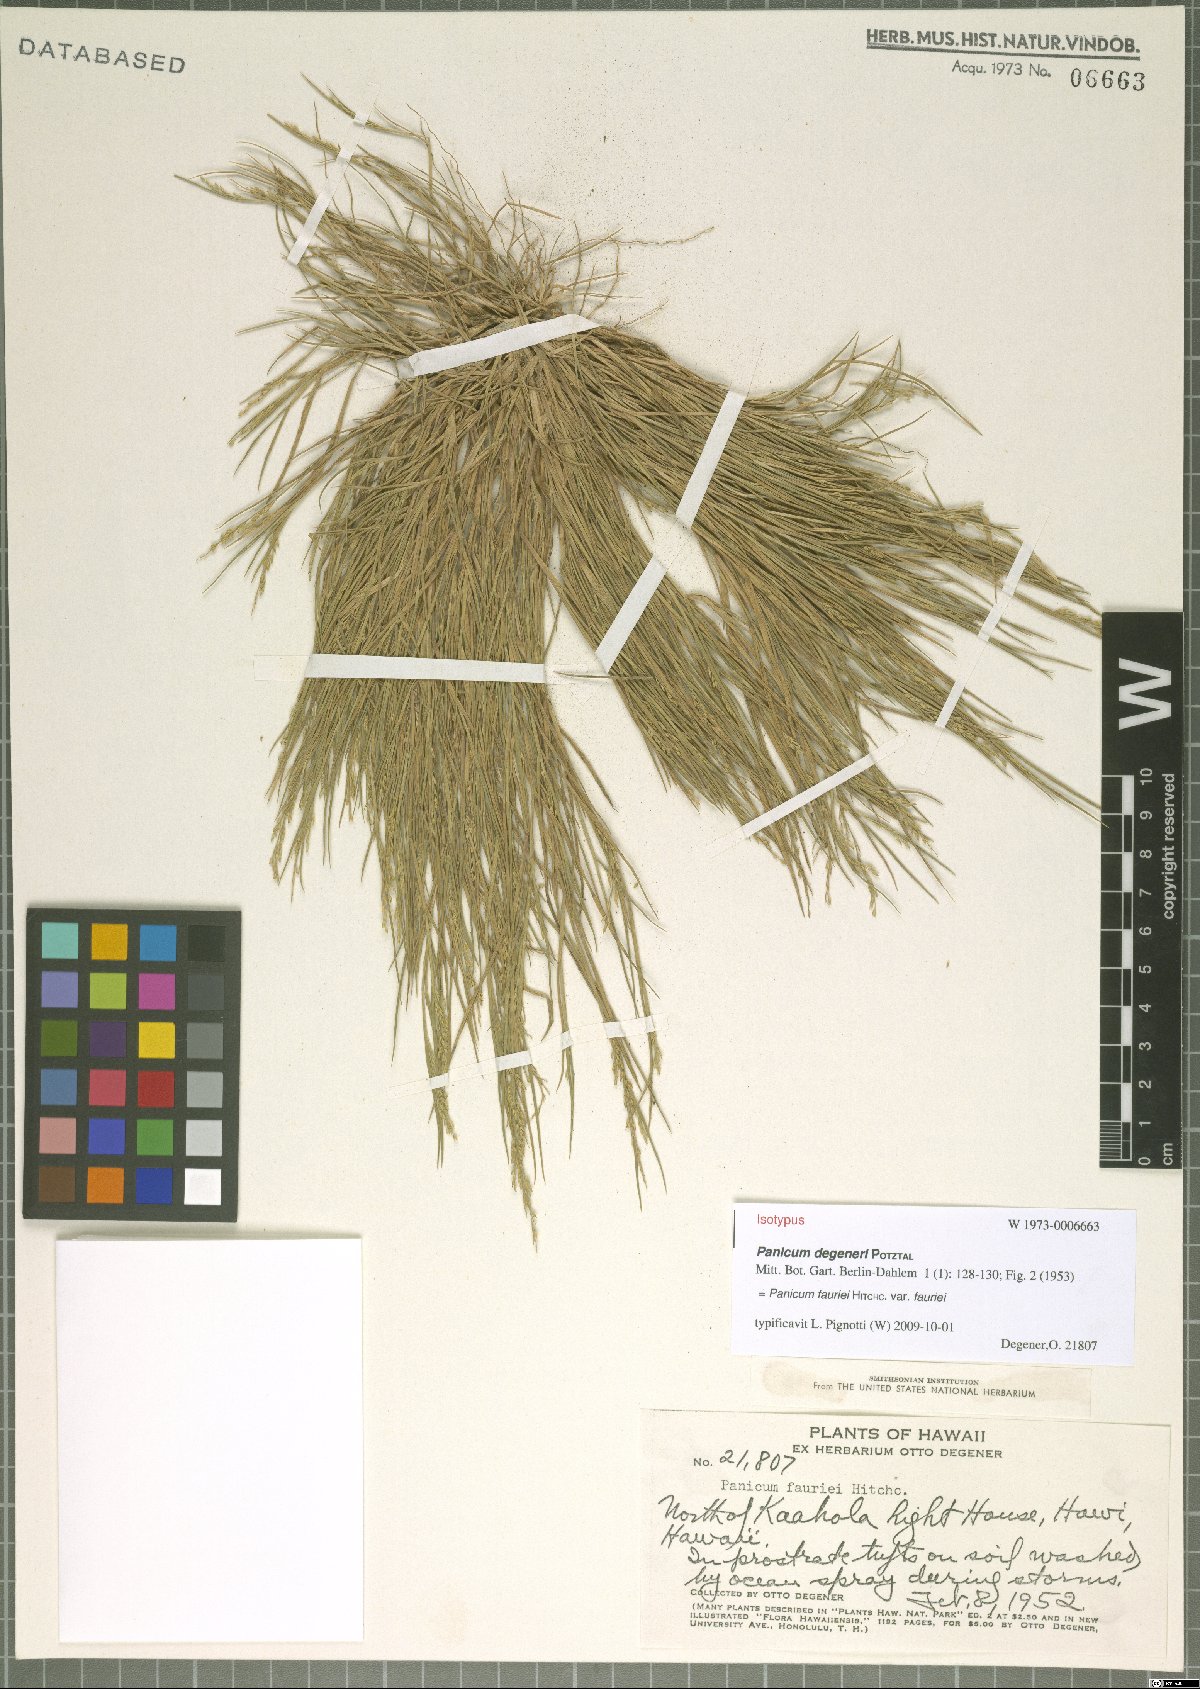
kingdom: Plantae
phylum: Tracheophyta
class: Liliopsida
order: Poales
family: Poaceae
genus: Panicum
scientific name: Panicum fauriei
